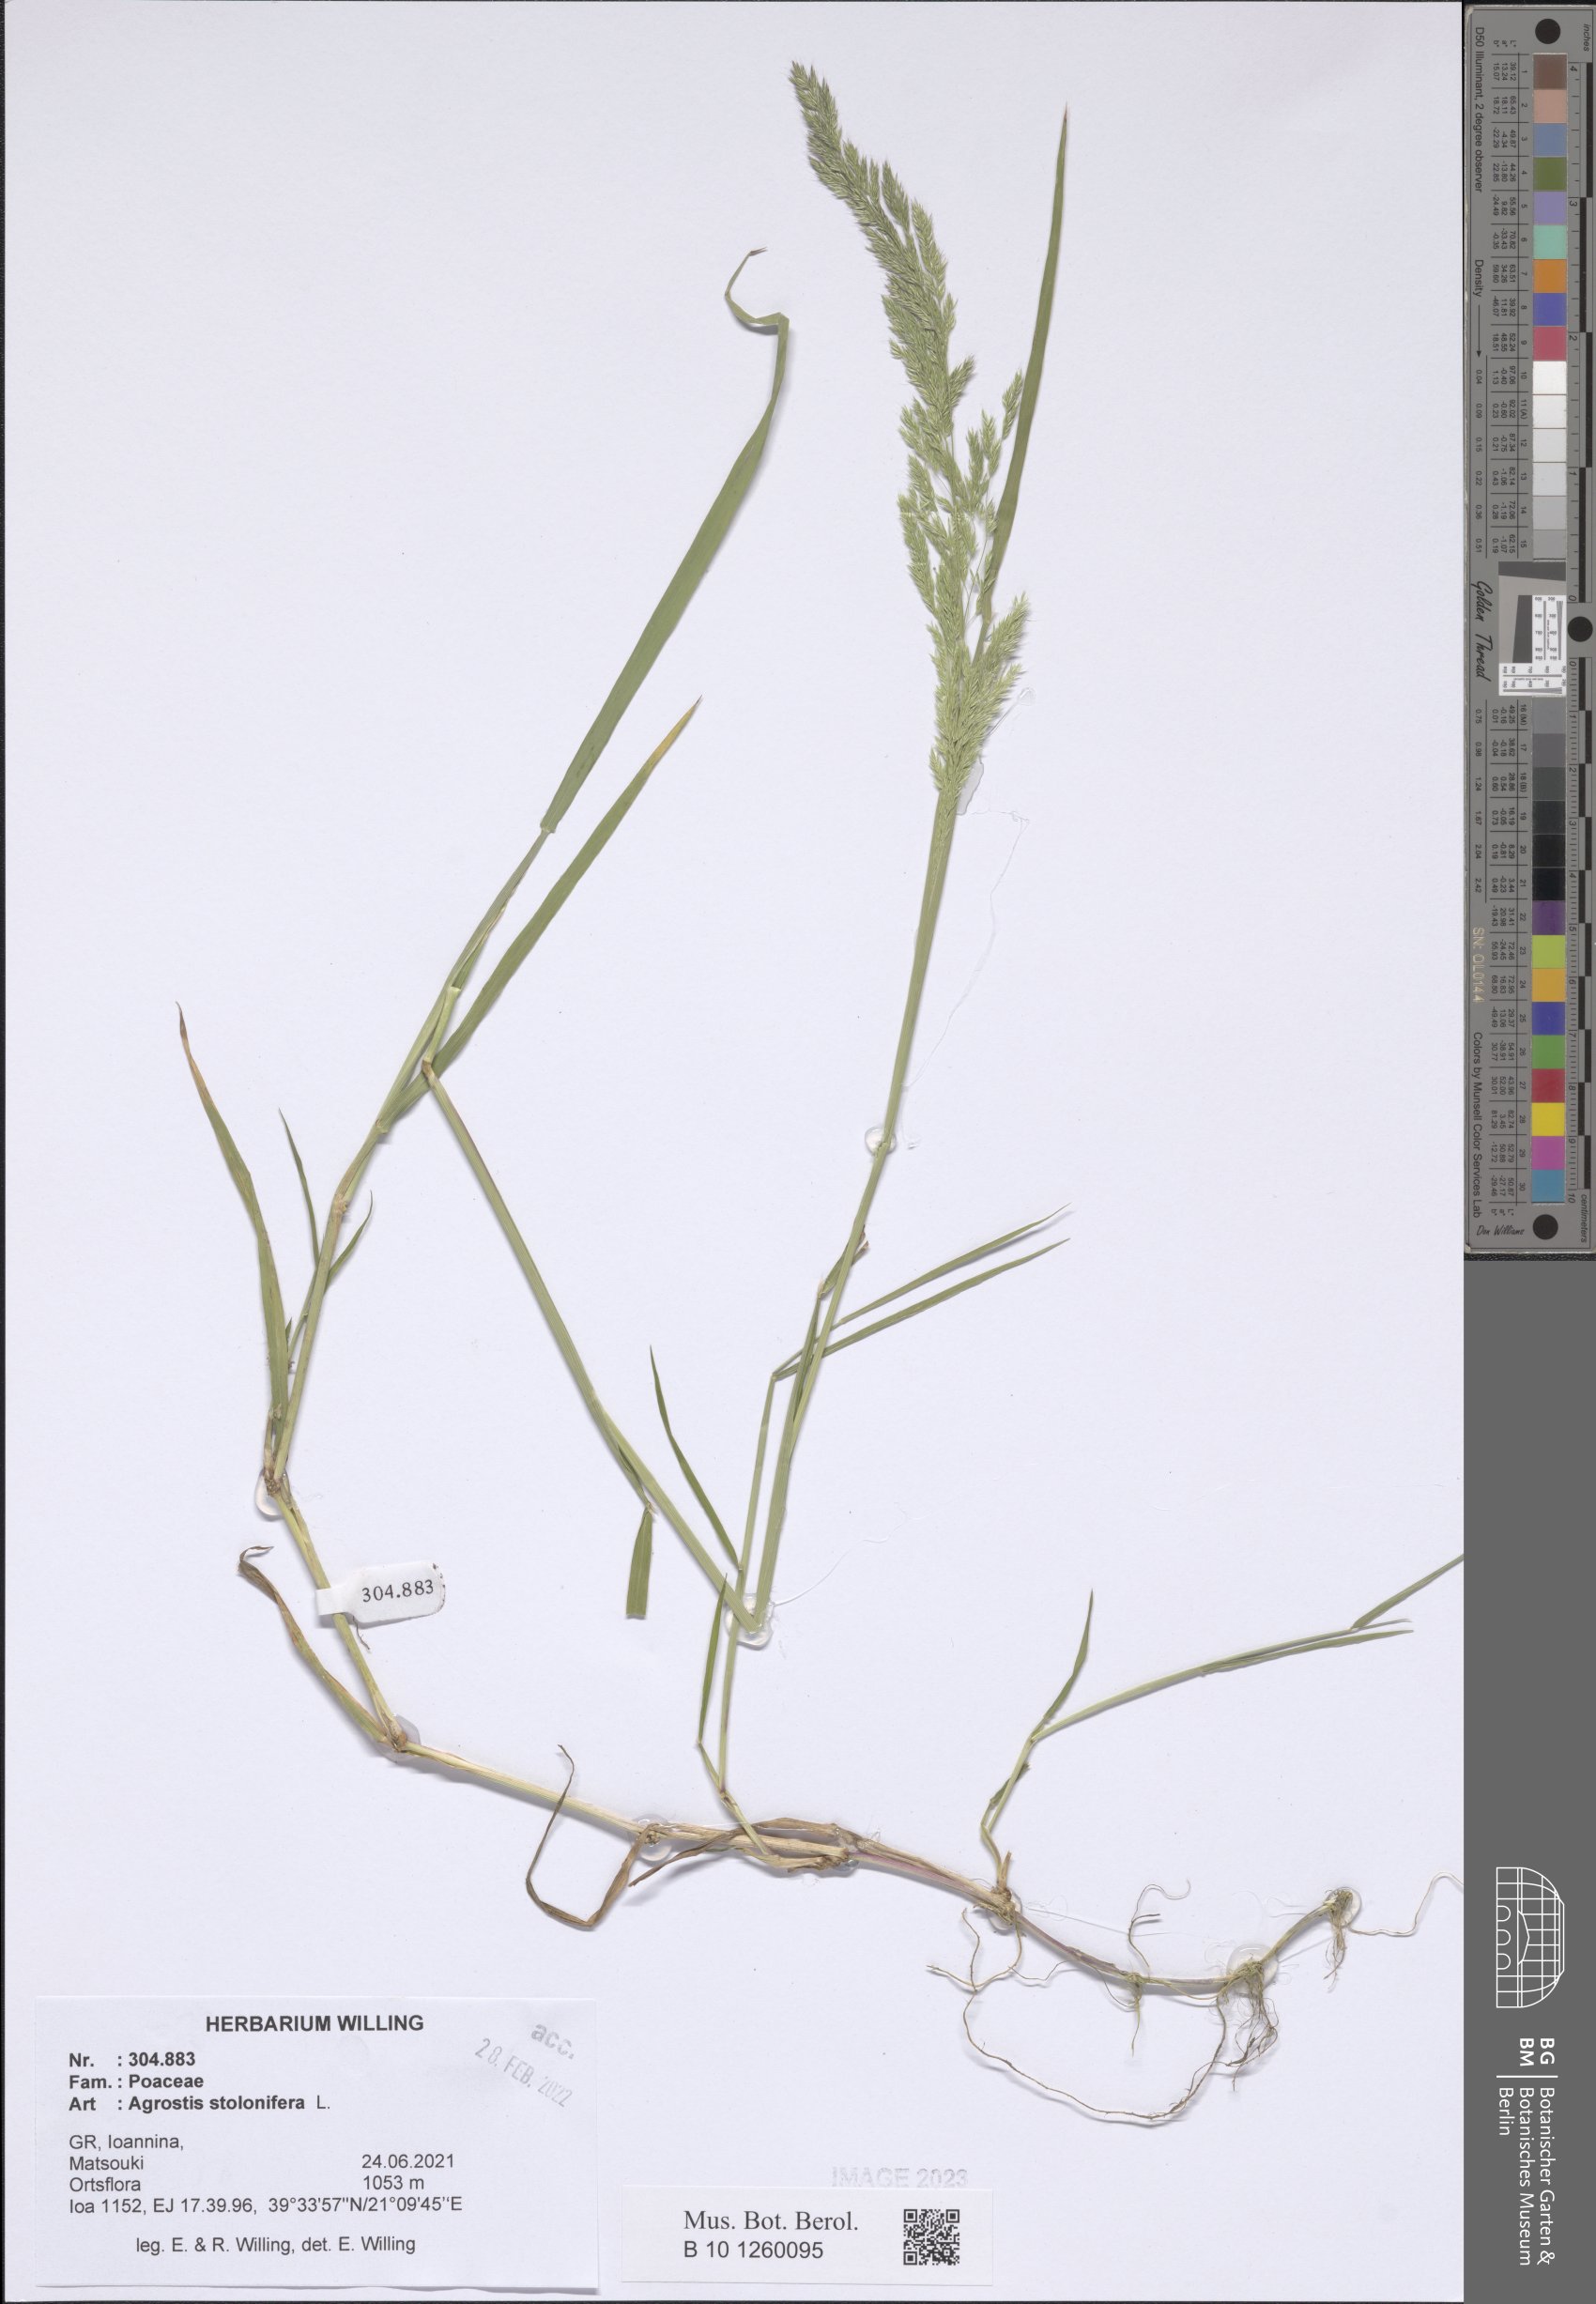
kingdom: Plantae
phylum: Tracheophyta
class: Liliopsida
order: Poales
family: Poaceae
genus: Agrostis
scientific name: Agrostis stolonifera
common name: Creeping bentgrass
